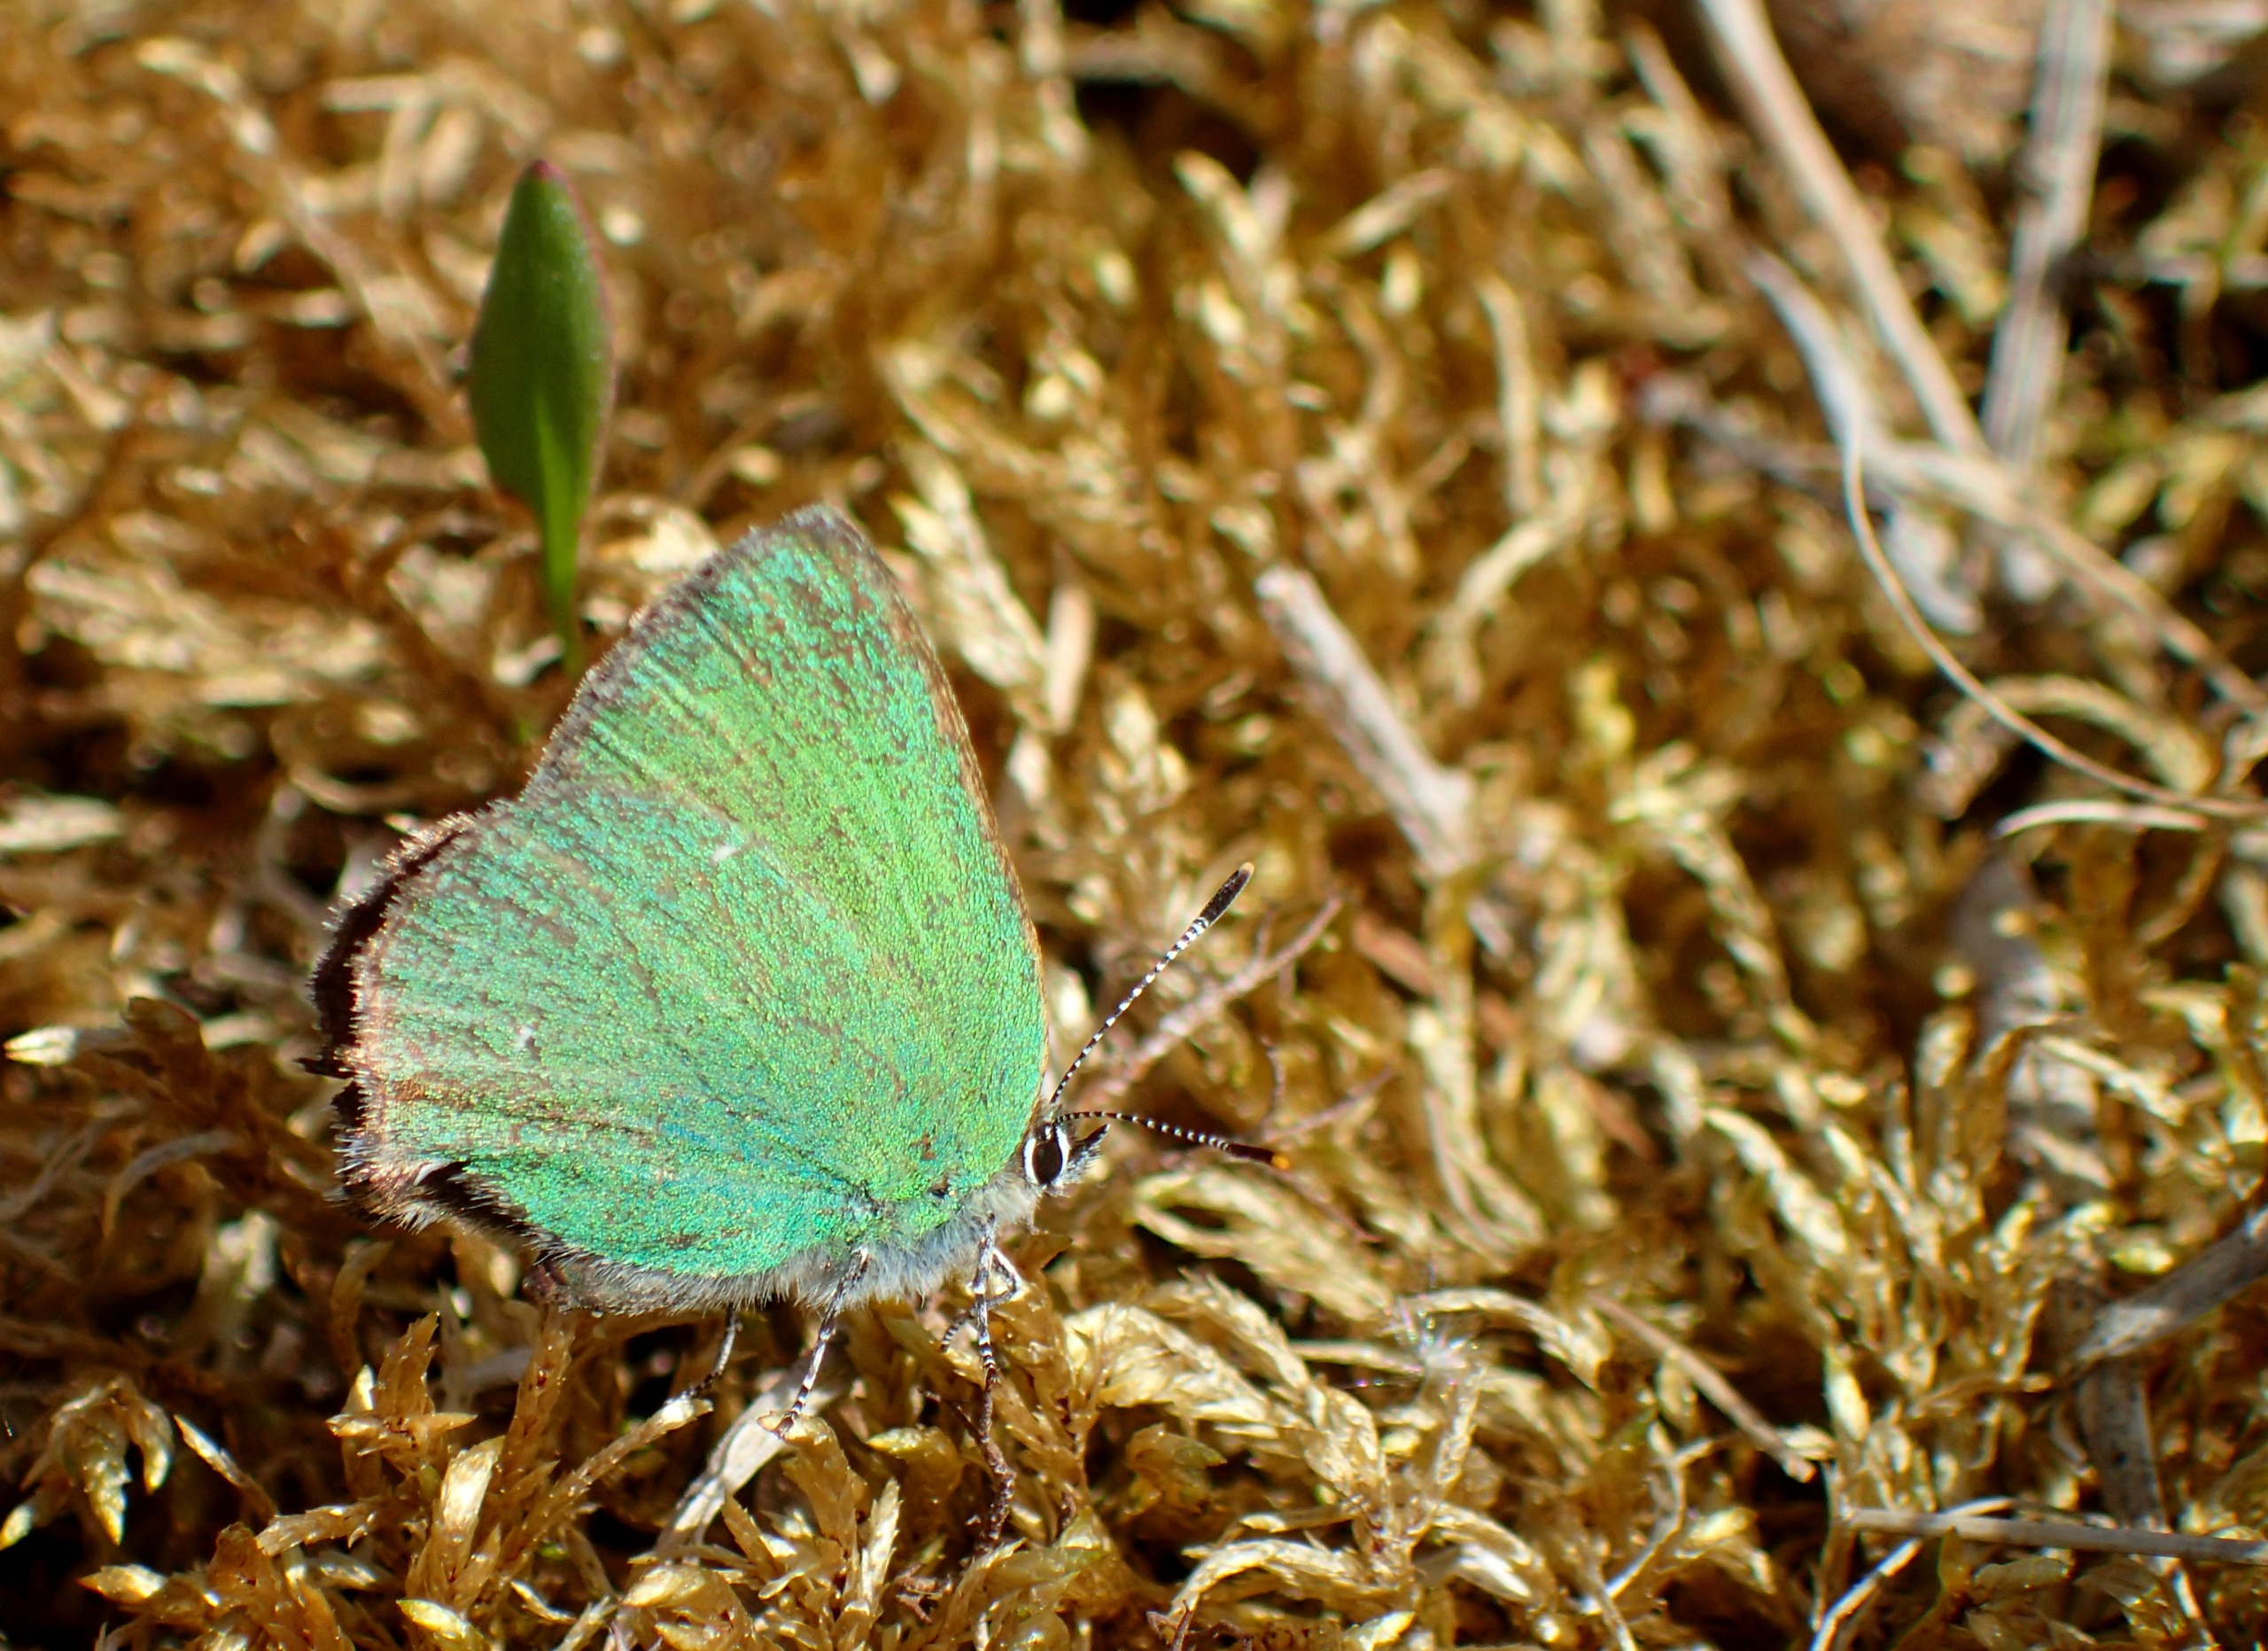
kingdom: Animalia
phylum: Arthropoda
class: Insecta
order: Lepidoptera
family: Lycaenidae
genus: Callophrys
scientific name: Callophrys rubi
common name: Grøn busksommerfugl
